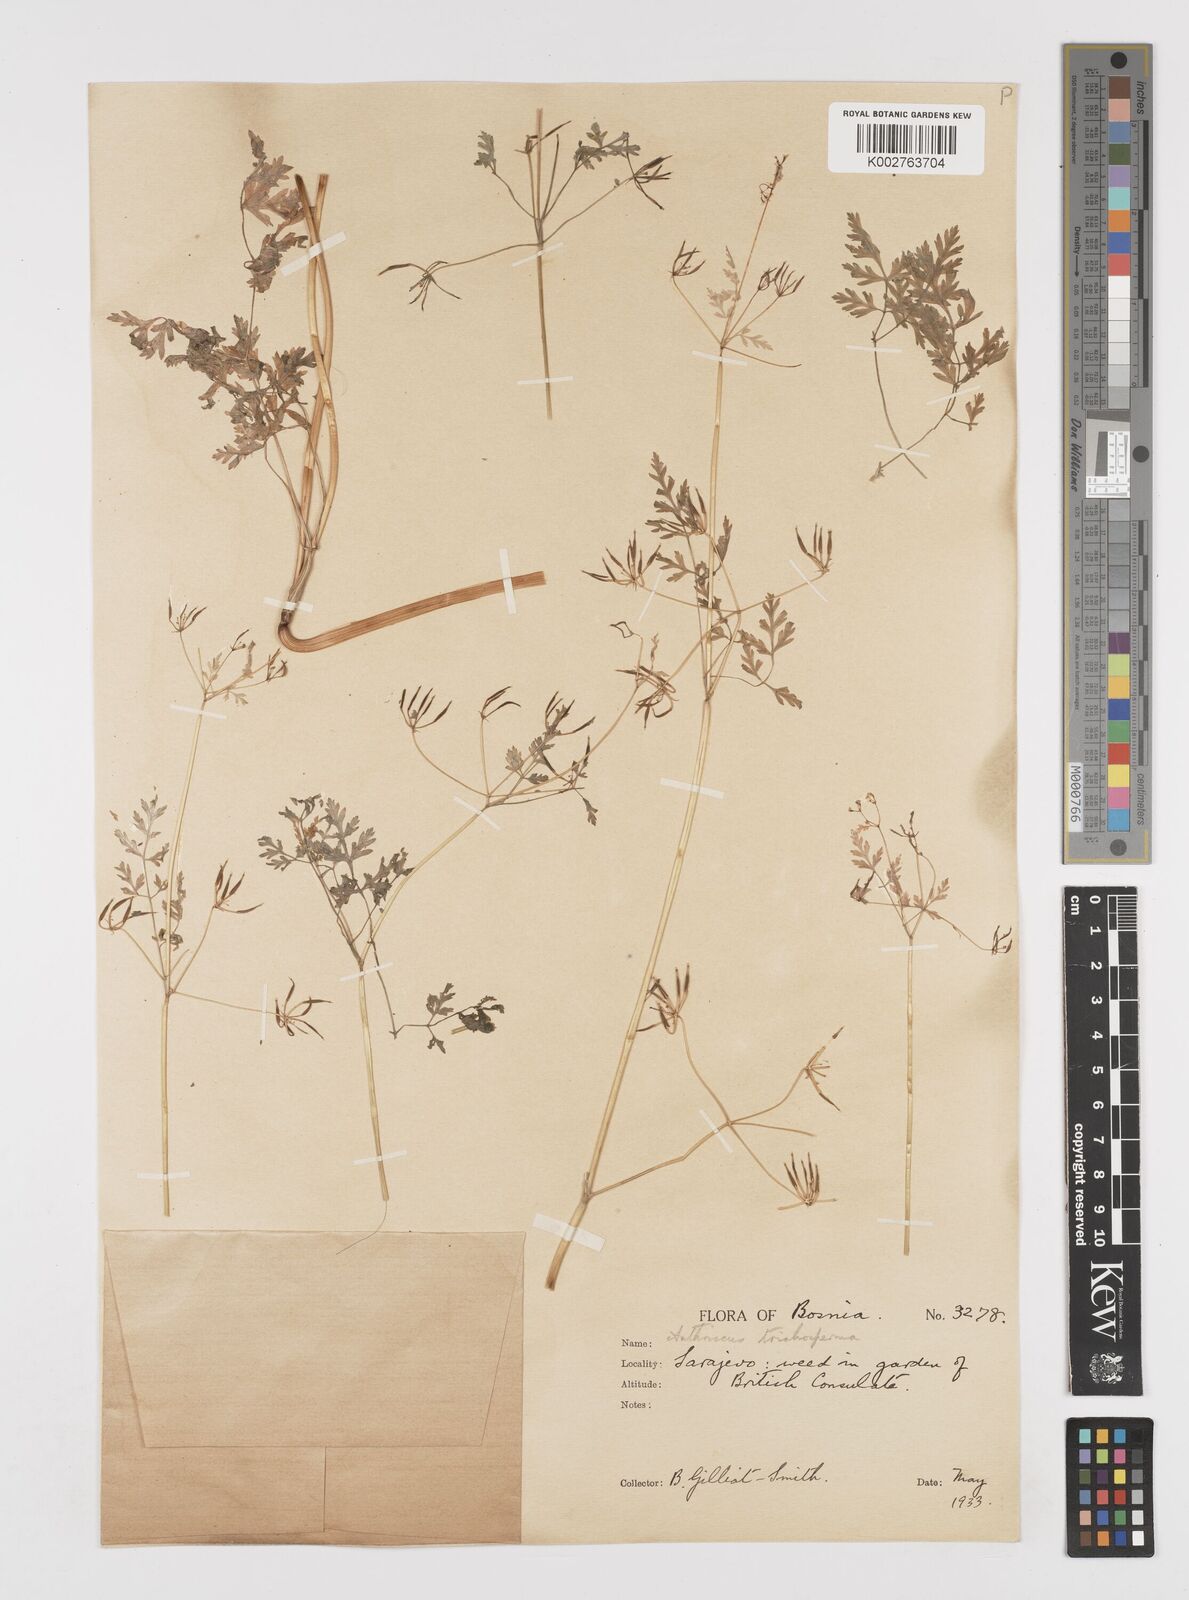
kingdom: Plantae
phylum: Tracheophyta
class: Magnoliopsida
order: Apiales
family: Apiaceae
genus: Anthriscus
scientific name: Anthriscus
